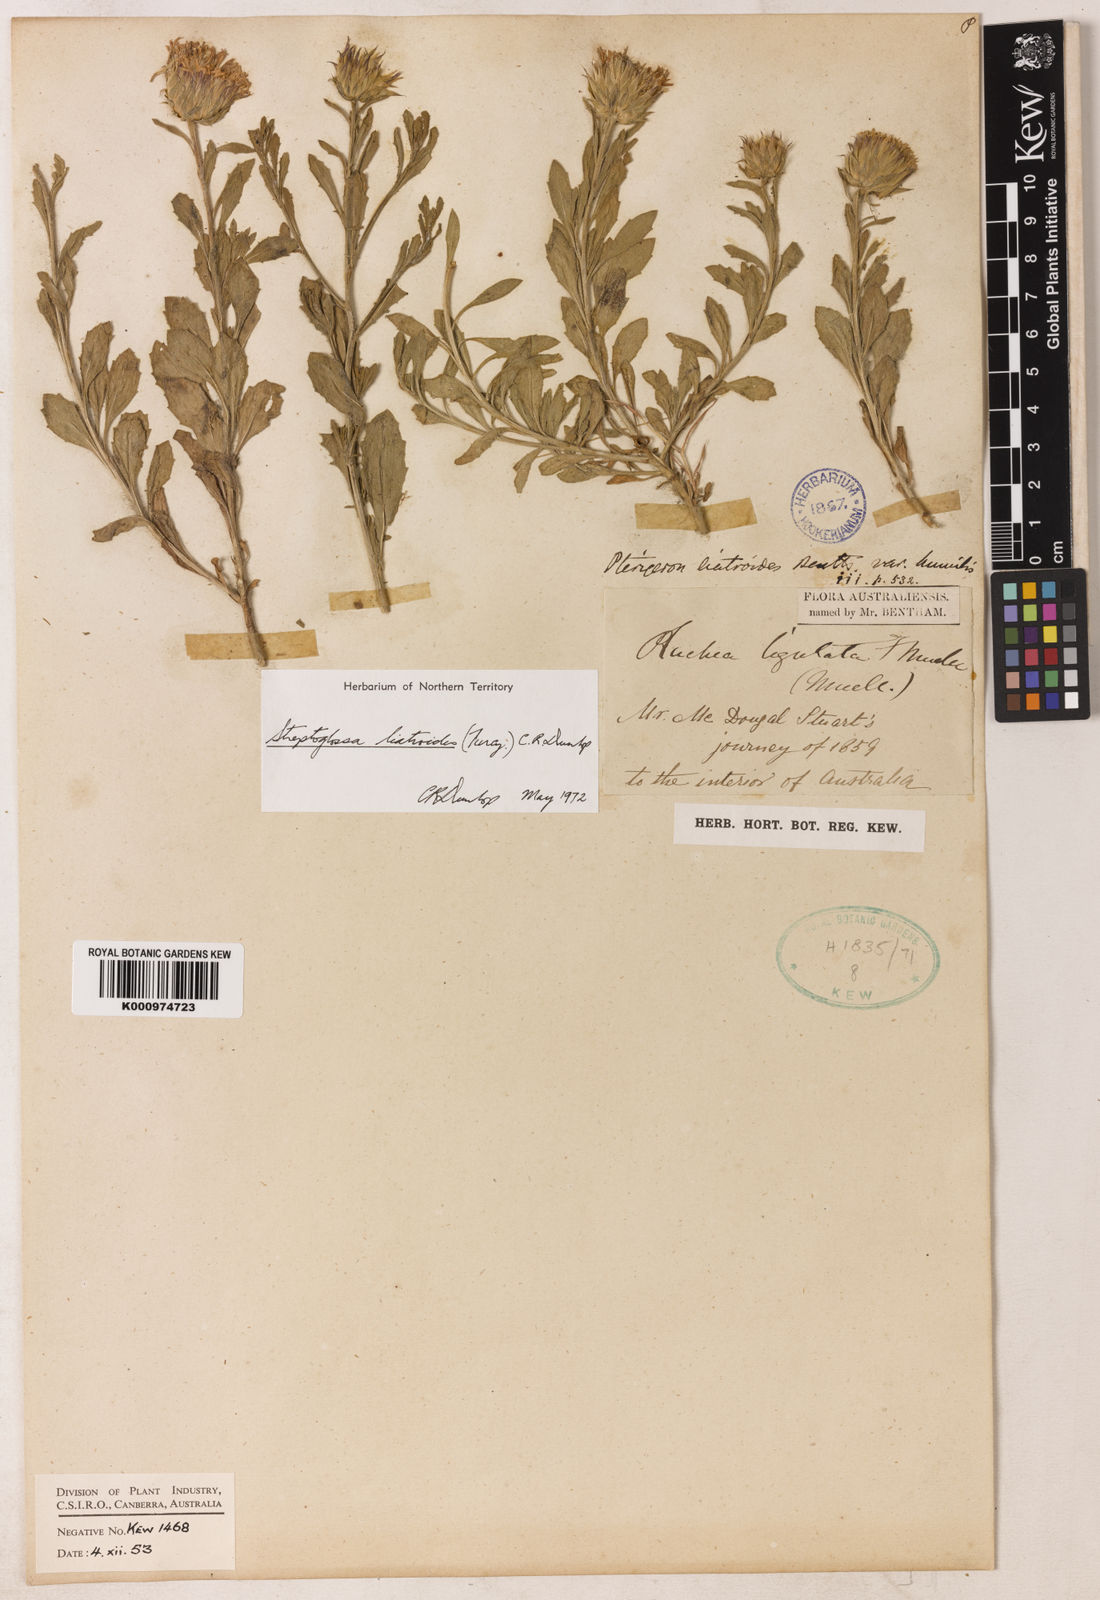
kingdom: Plantae
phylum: Tracheophyta
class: Magnoliopsida
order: Asterales
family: Asteraceae
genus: Streptoglossa
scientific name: Streptoglossa liatroides
